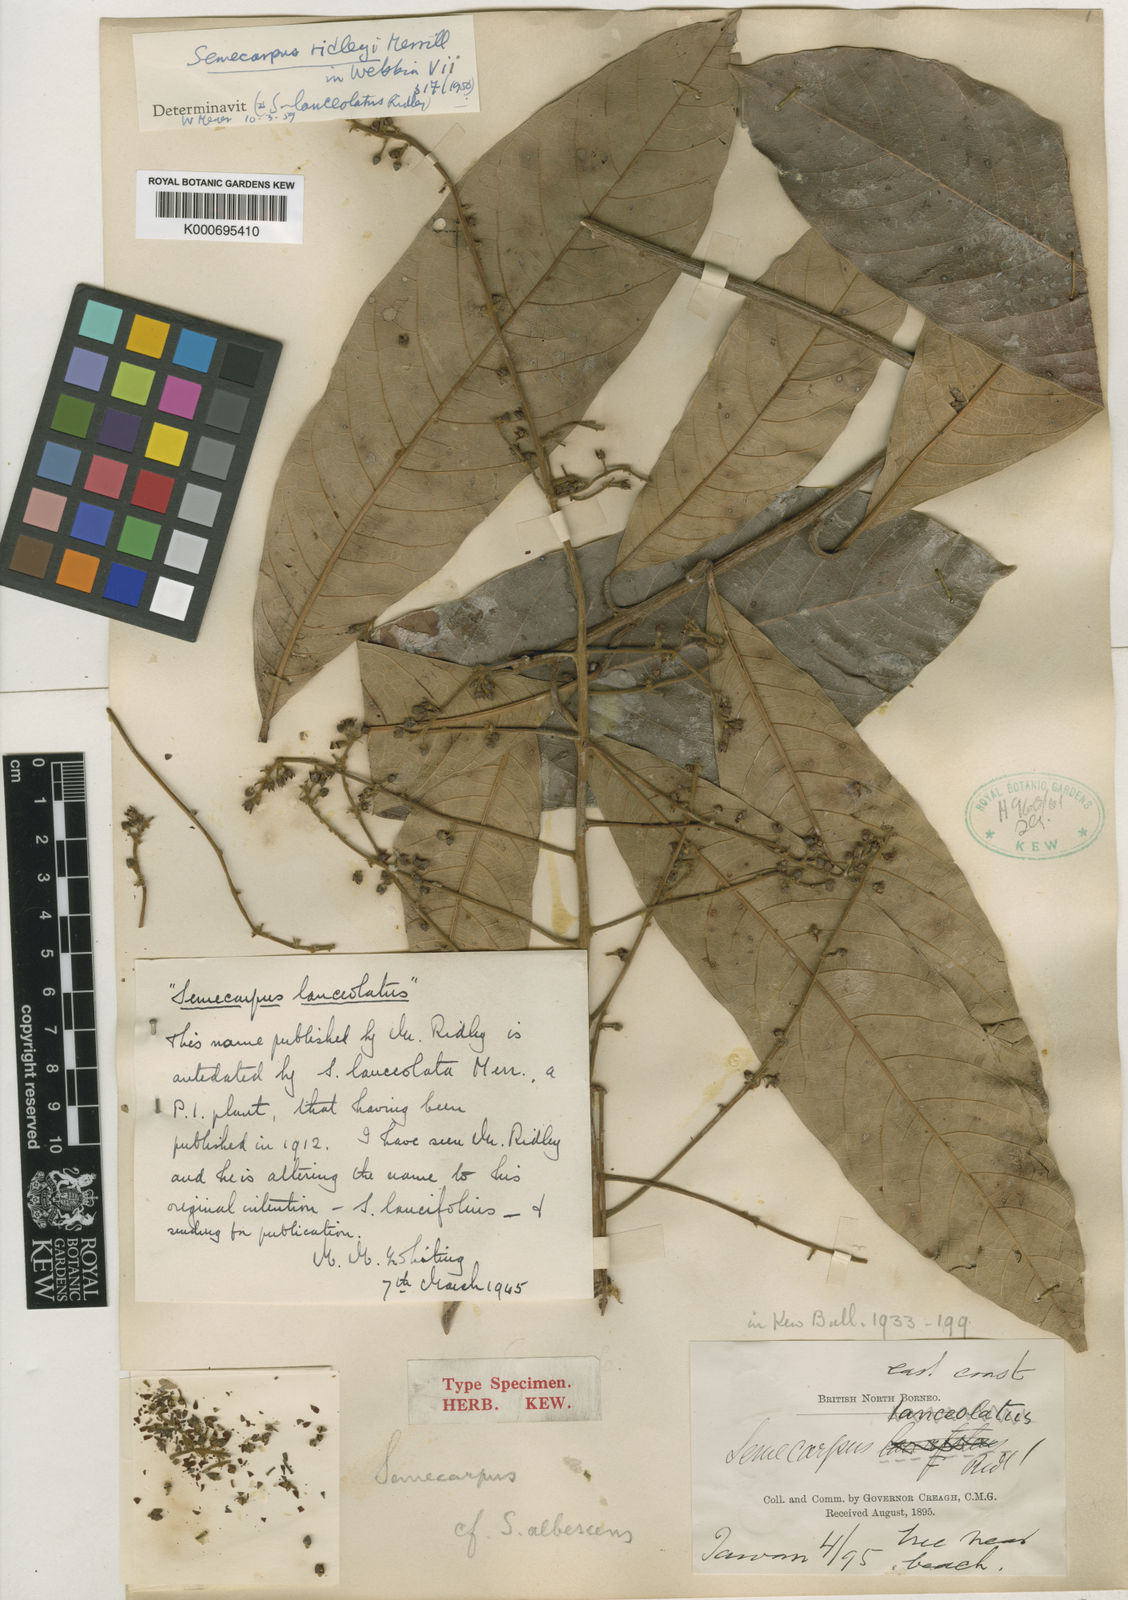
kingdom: Plantae
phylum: Tracheophyta
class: Magnoliopsida
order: Sapindales
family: Anacardiaceae
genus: Semecarpus
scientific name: Semecarpus cuneiformis
